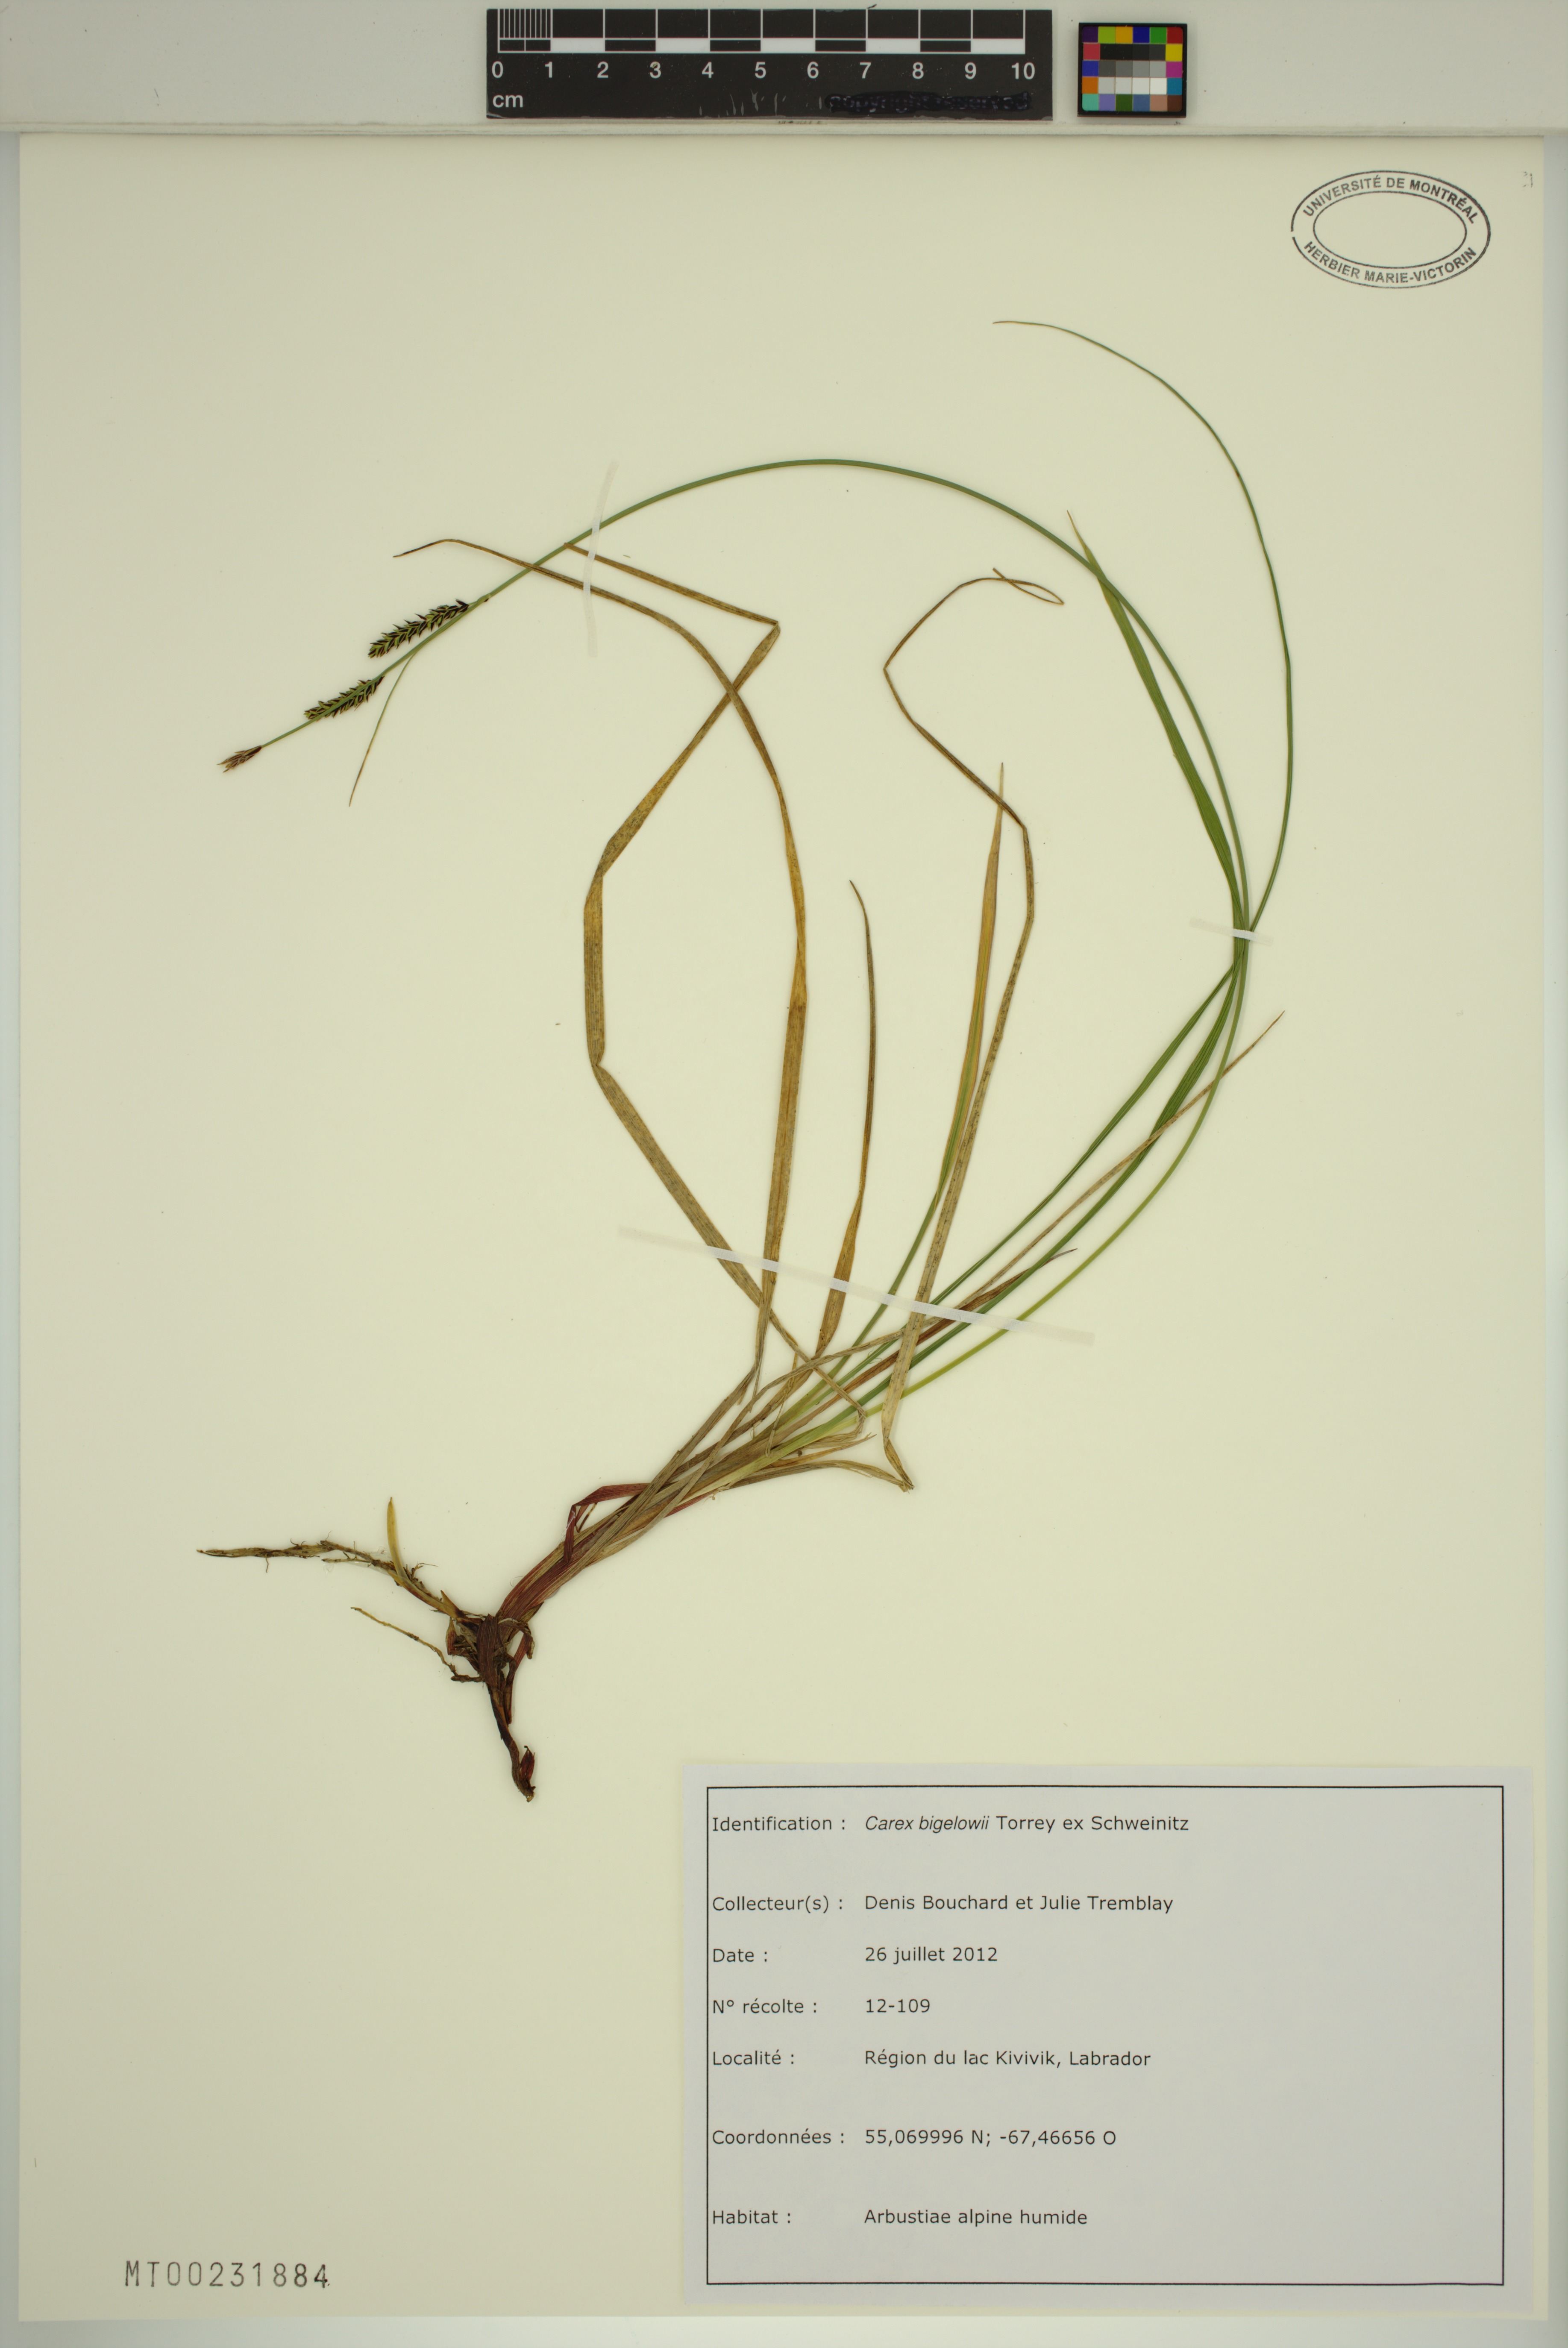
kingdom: Plantae
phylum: Tracheophyta
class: Liliopsida
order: Poales
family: Cyperaceae
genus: Carex
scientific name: Carex bigelowii
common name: Stiff sedge
